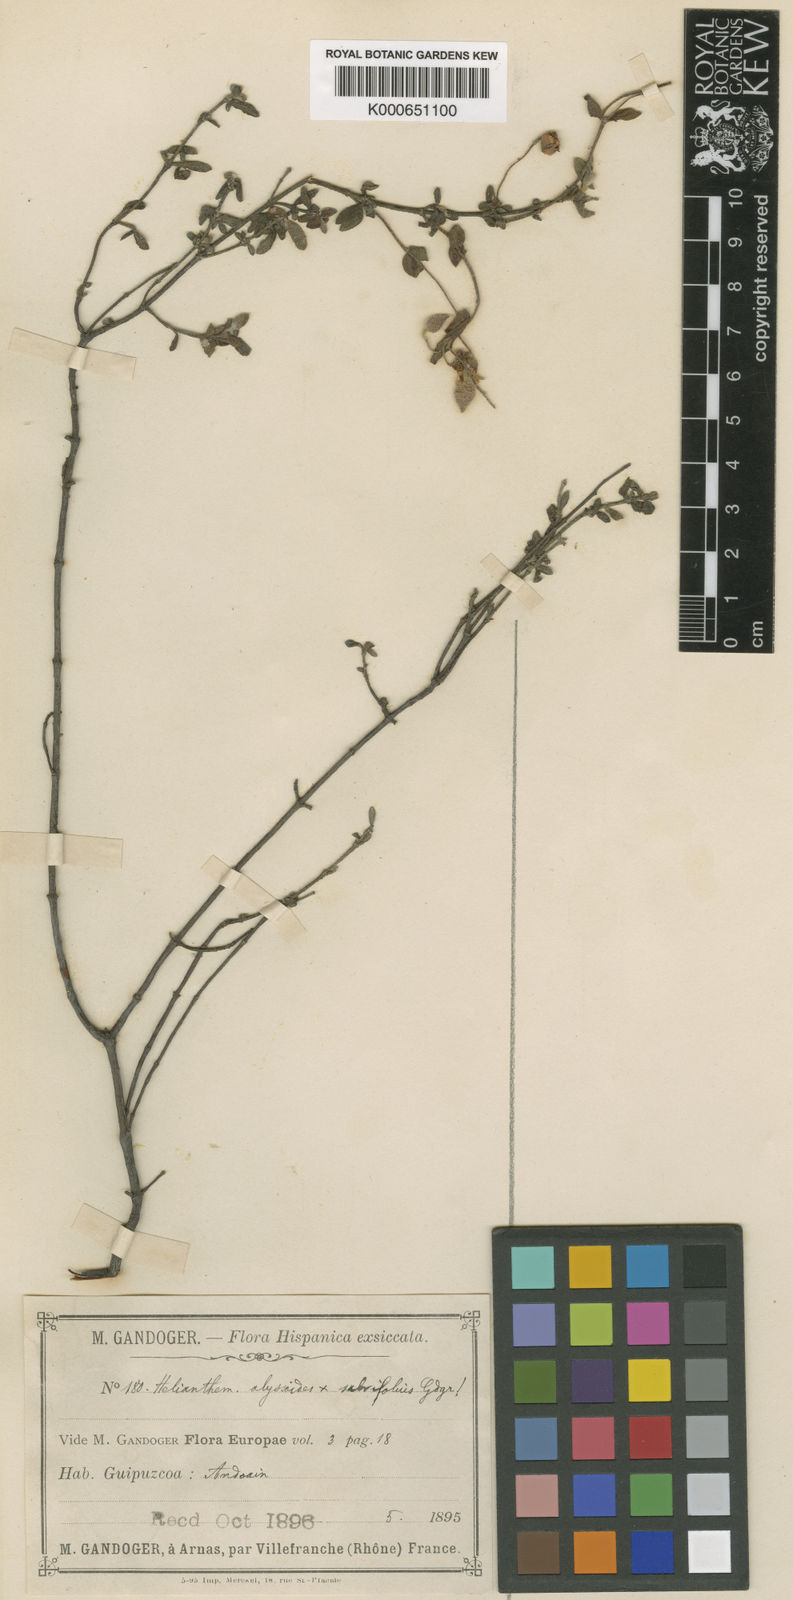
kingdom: Plantae
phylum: Tracheophyta
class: Magnoliopsida
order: Malvales
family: Cistaceae
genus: Halimium
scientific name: Halimium lasianthum
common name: Lisbon false sun-rose
